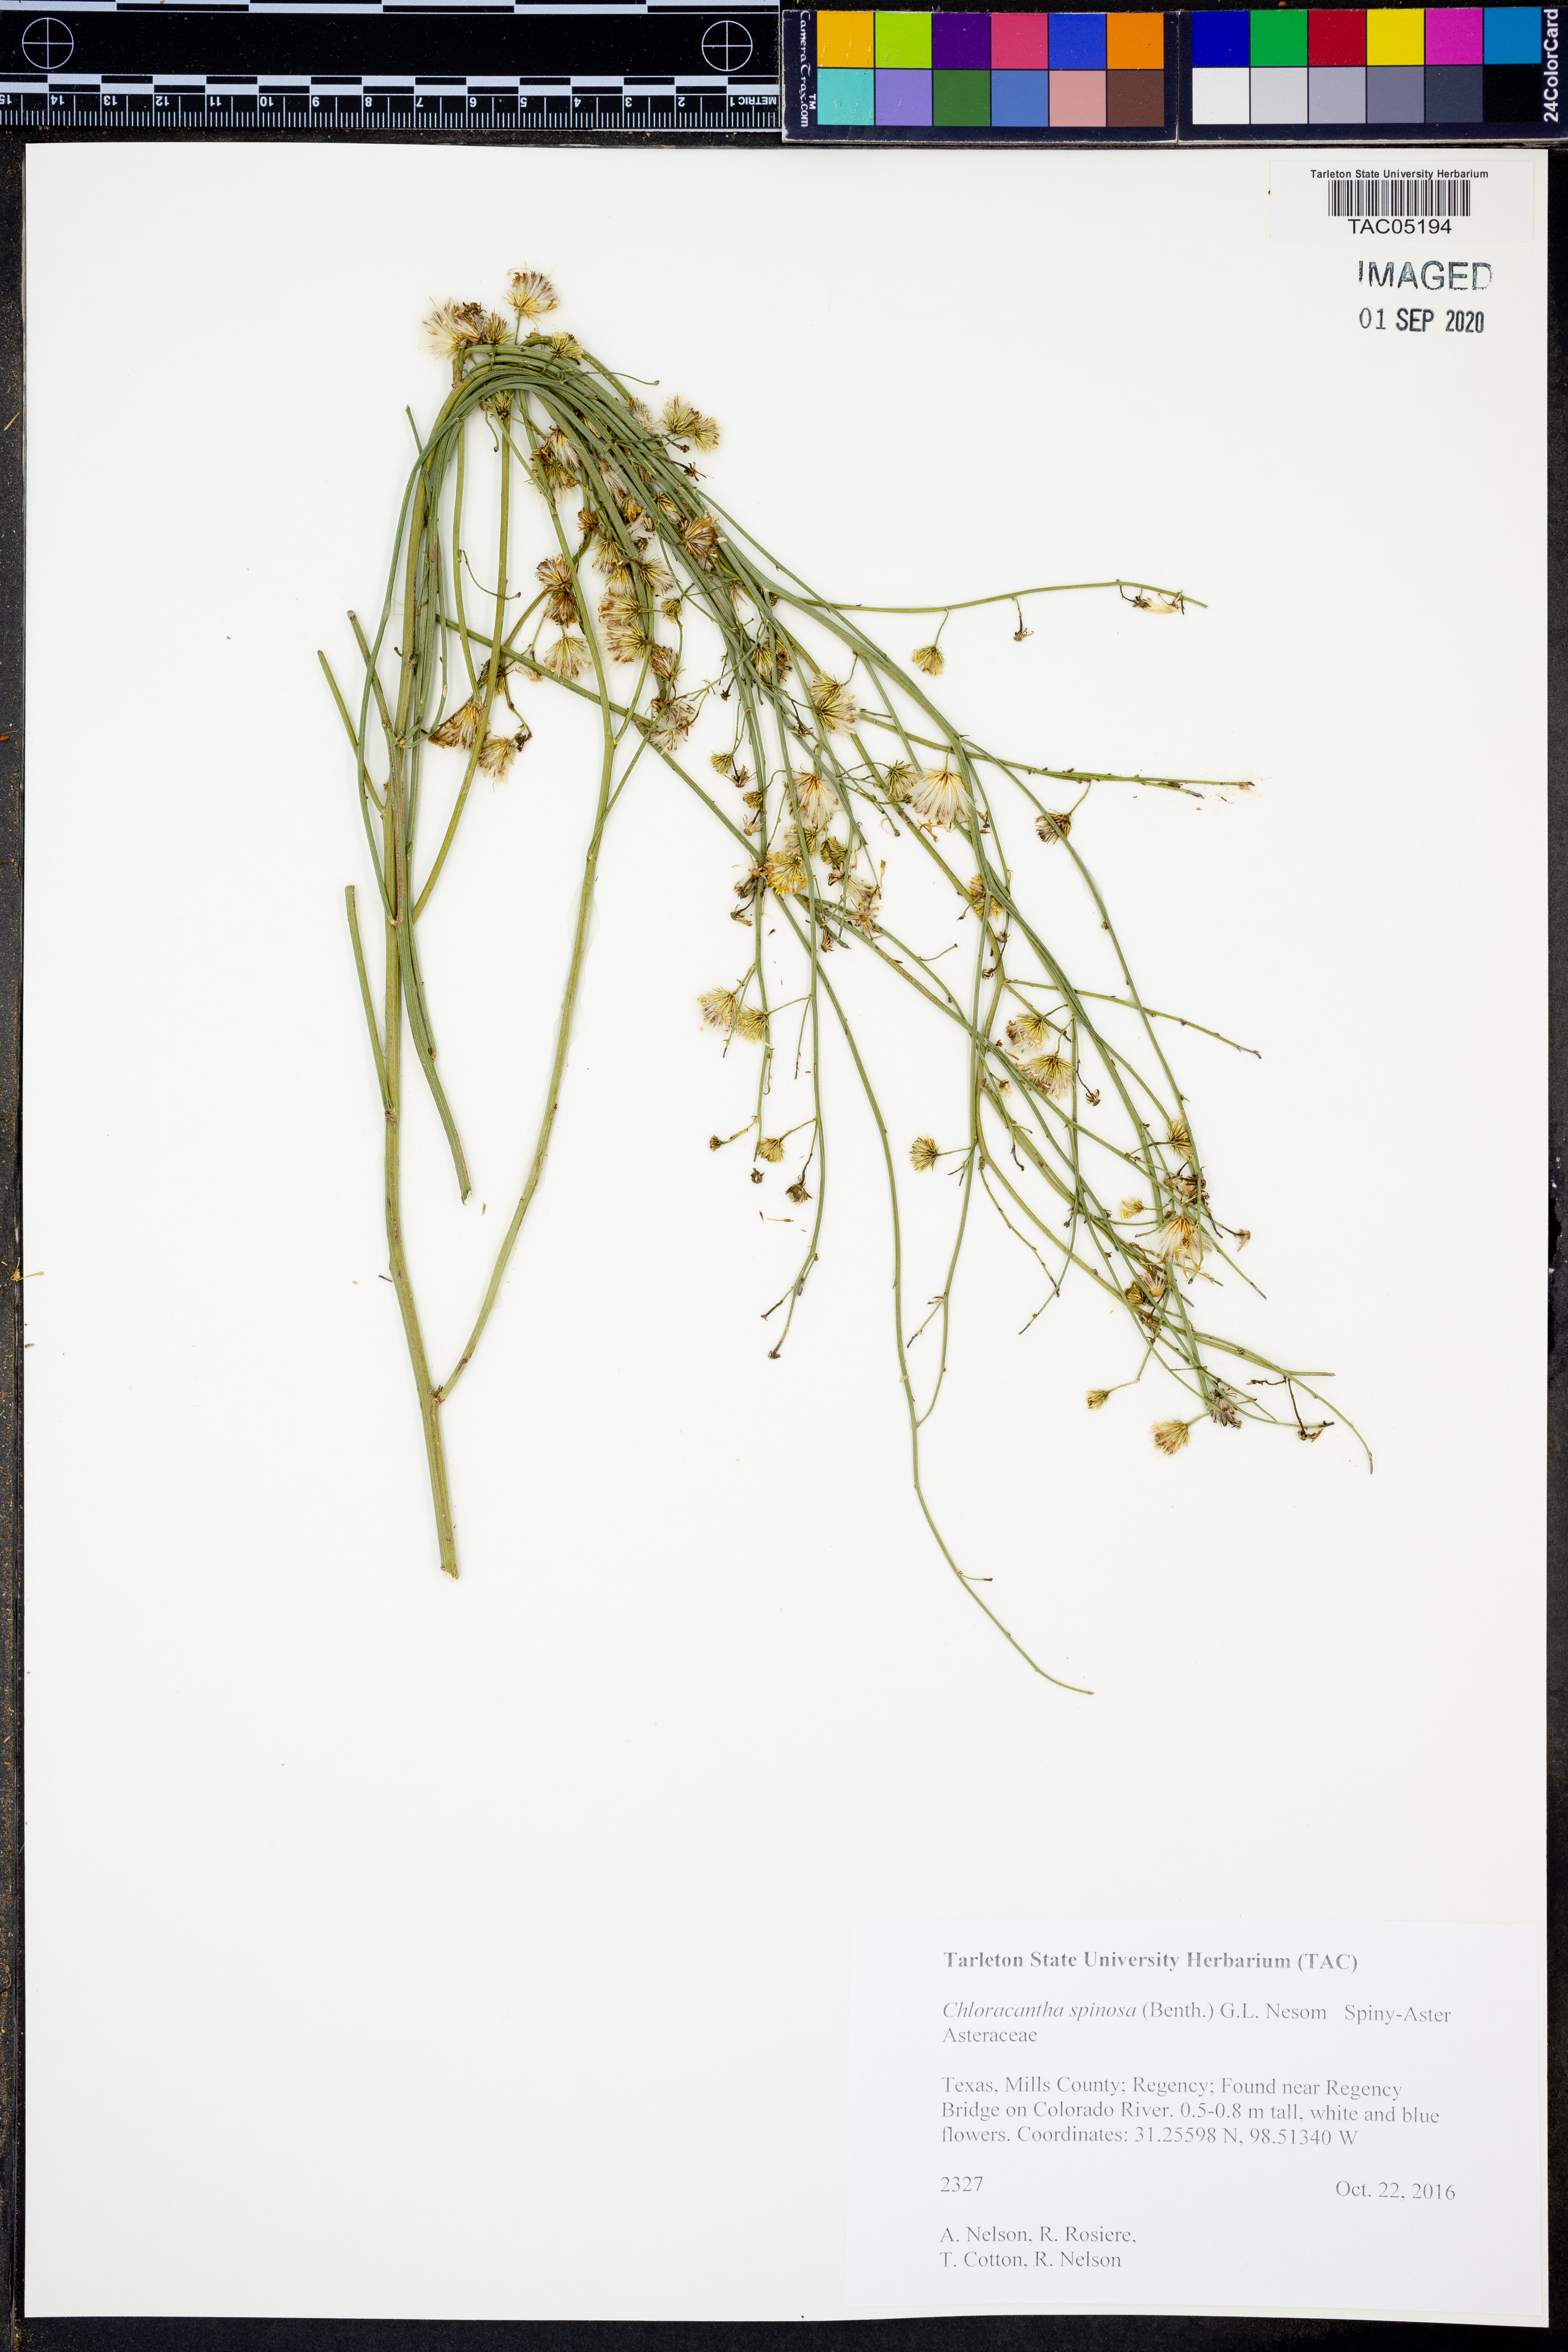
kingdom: Plantae
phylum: Tracheophyta
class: Magnoliopsida
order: Asterales
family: Asteraceae
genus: Chloracantha
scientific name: Chloracantha spinosa
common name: Mexican devilweed
